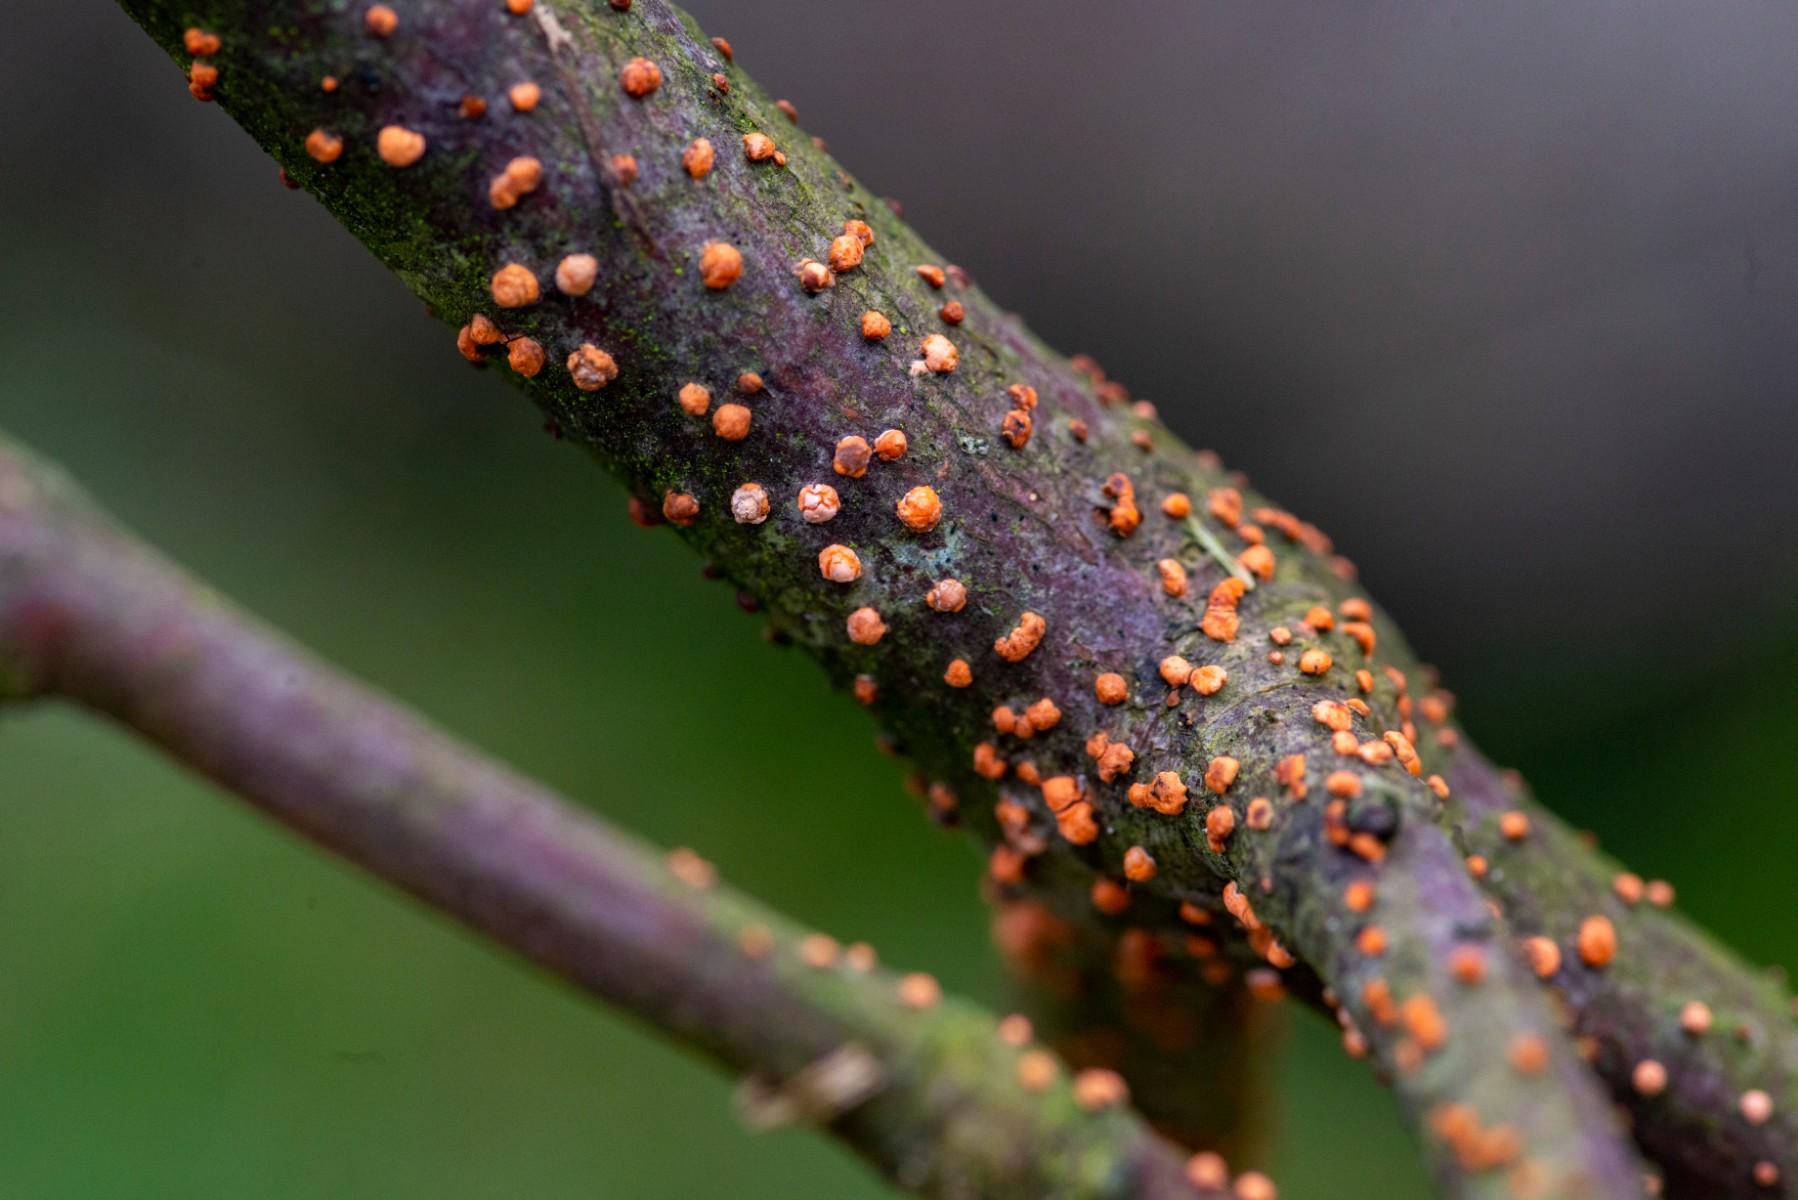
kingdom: Fungi
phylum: Ascomycota
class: Sordariomycetes
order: Hypocreales
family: Nectriaceae
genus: Nectria
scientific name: Nectria cinnabarina
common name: almindelig cinnobersvamp
